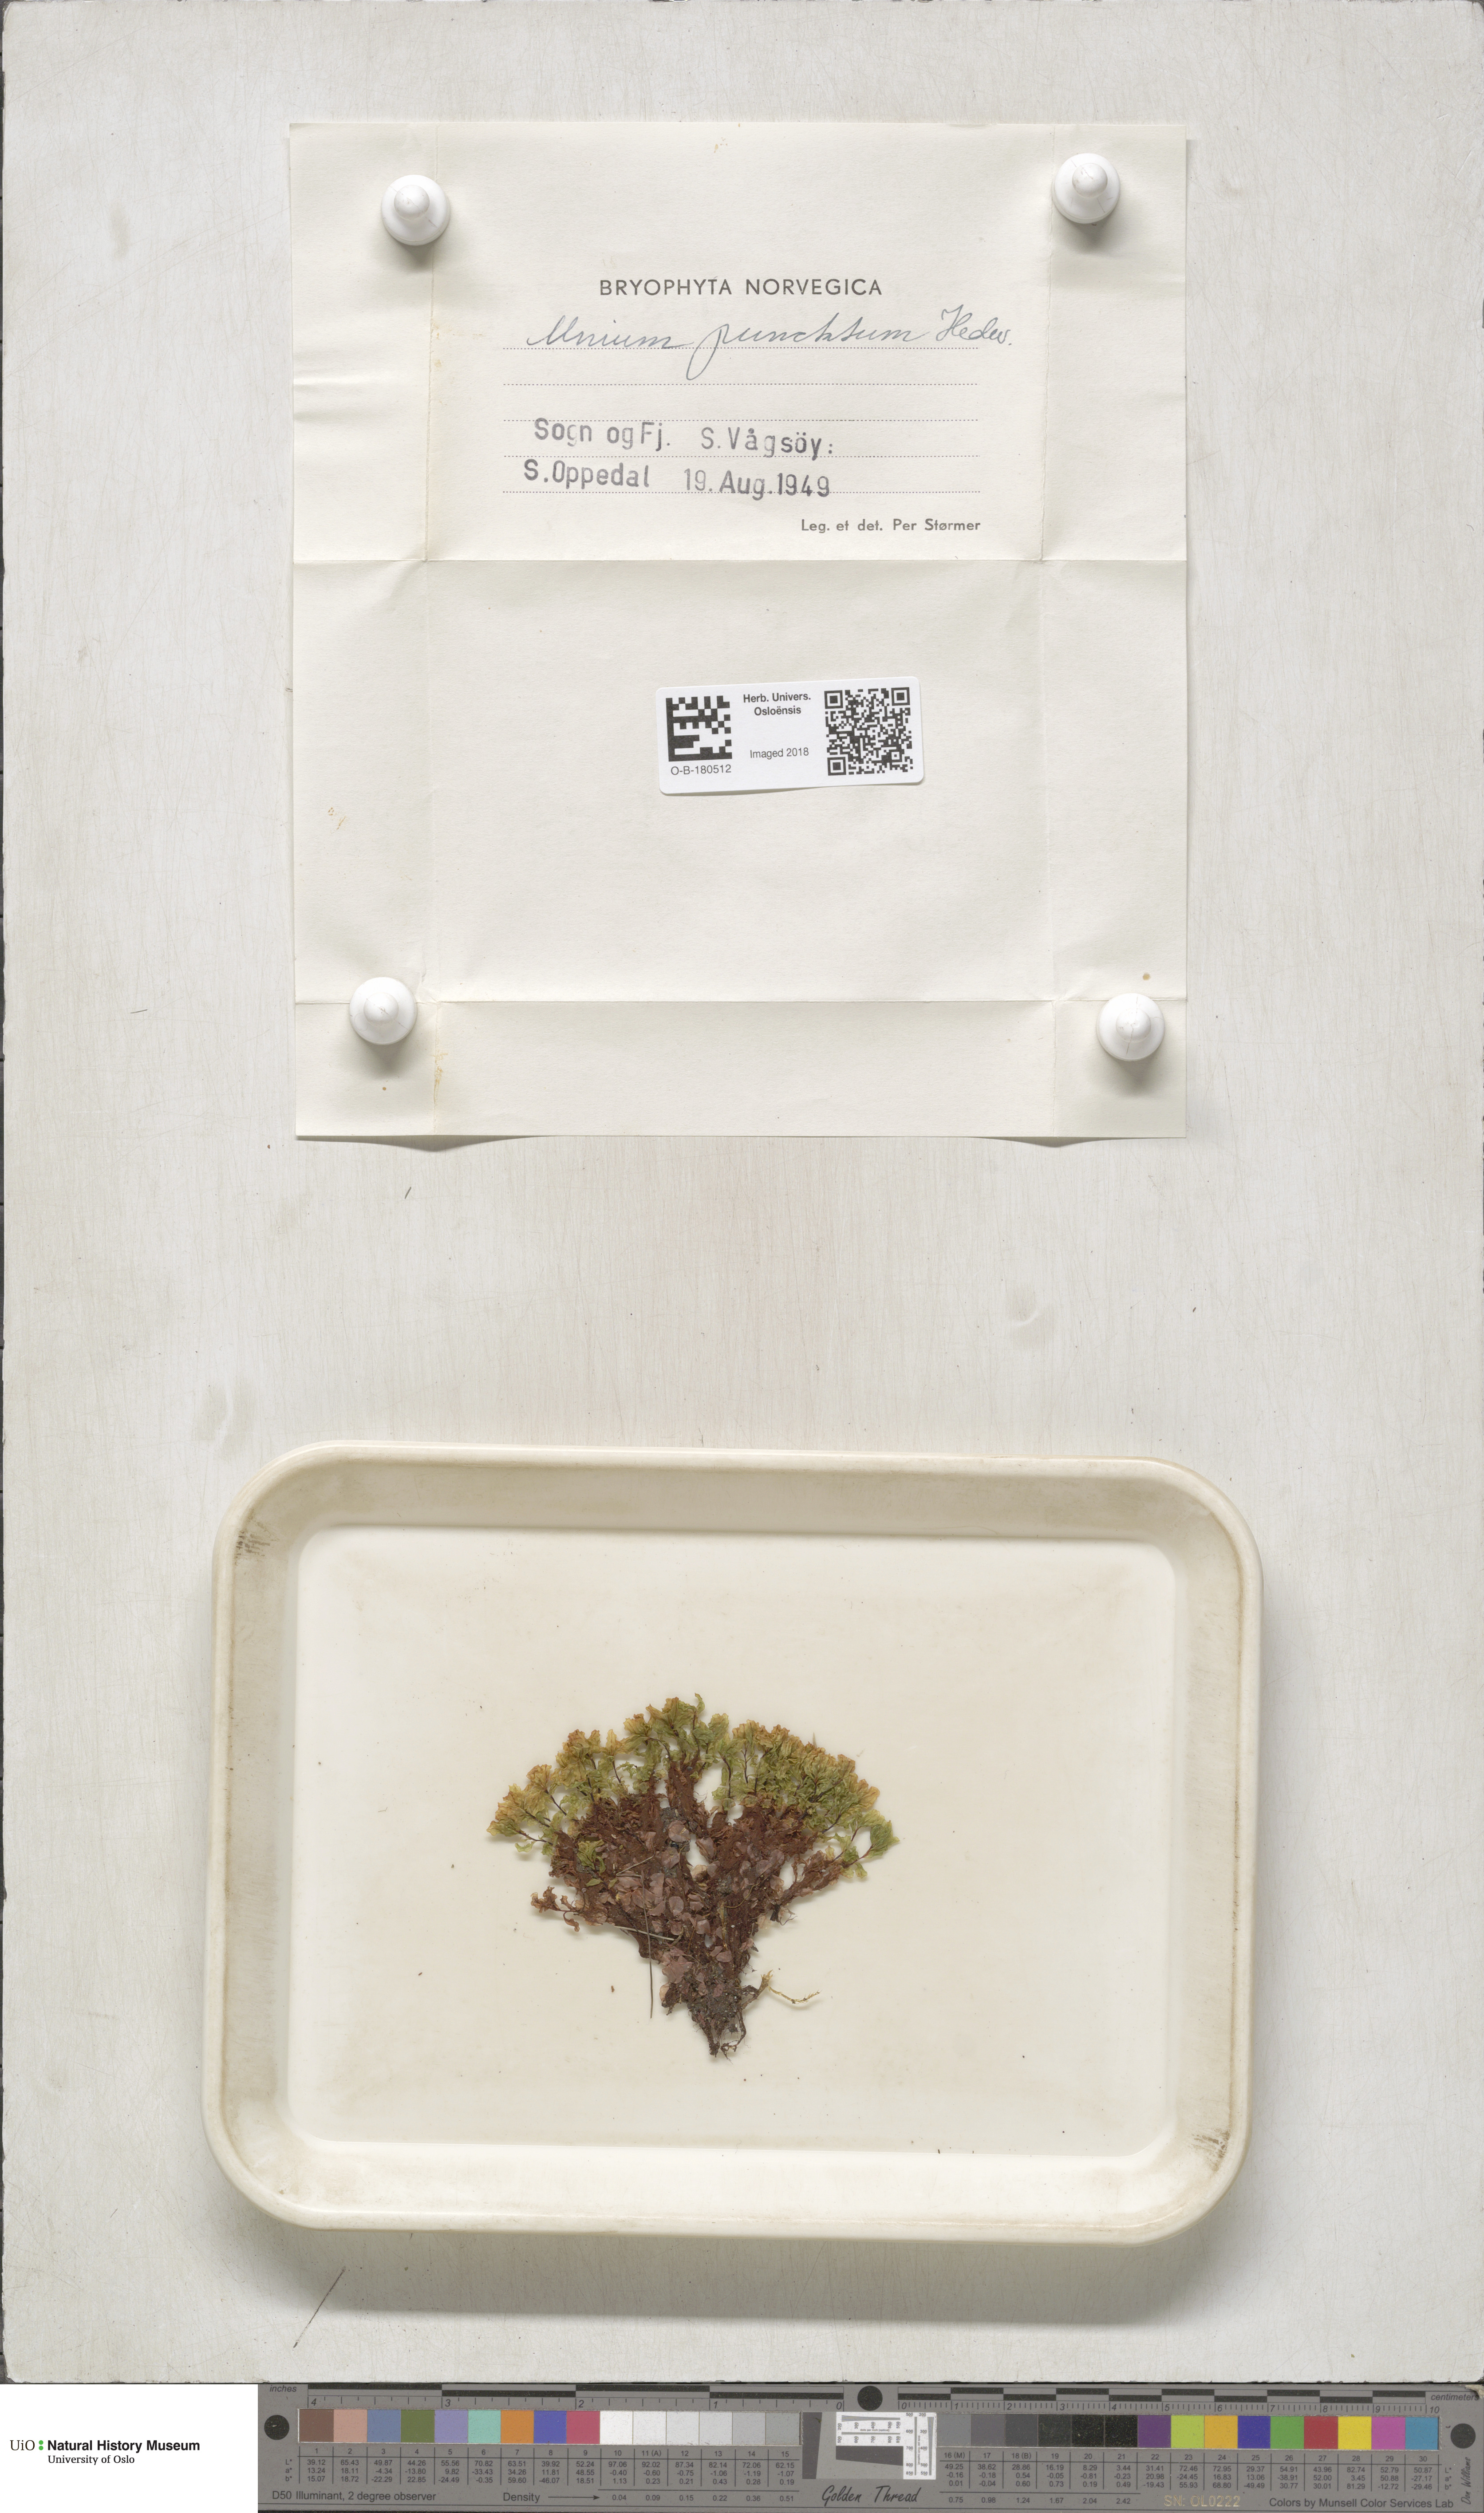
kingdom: Plantae
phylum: Bryophyta
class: Bryopsida
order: Bryales
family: Mniaceae
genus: Rhizomnium
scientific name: Rhizomnium punctatum
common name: Dotted leafy moss
